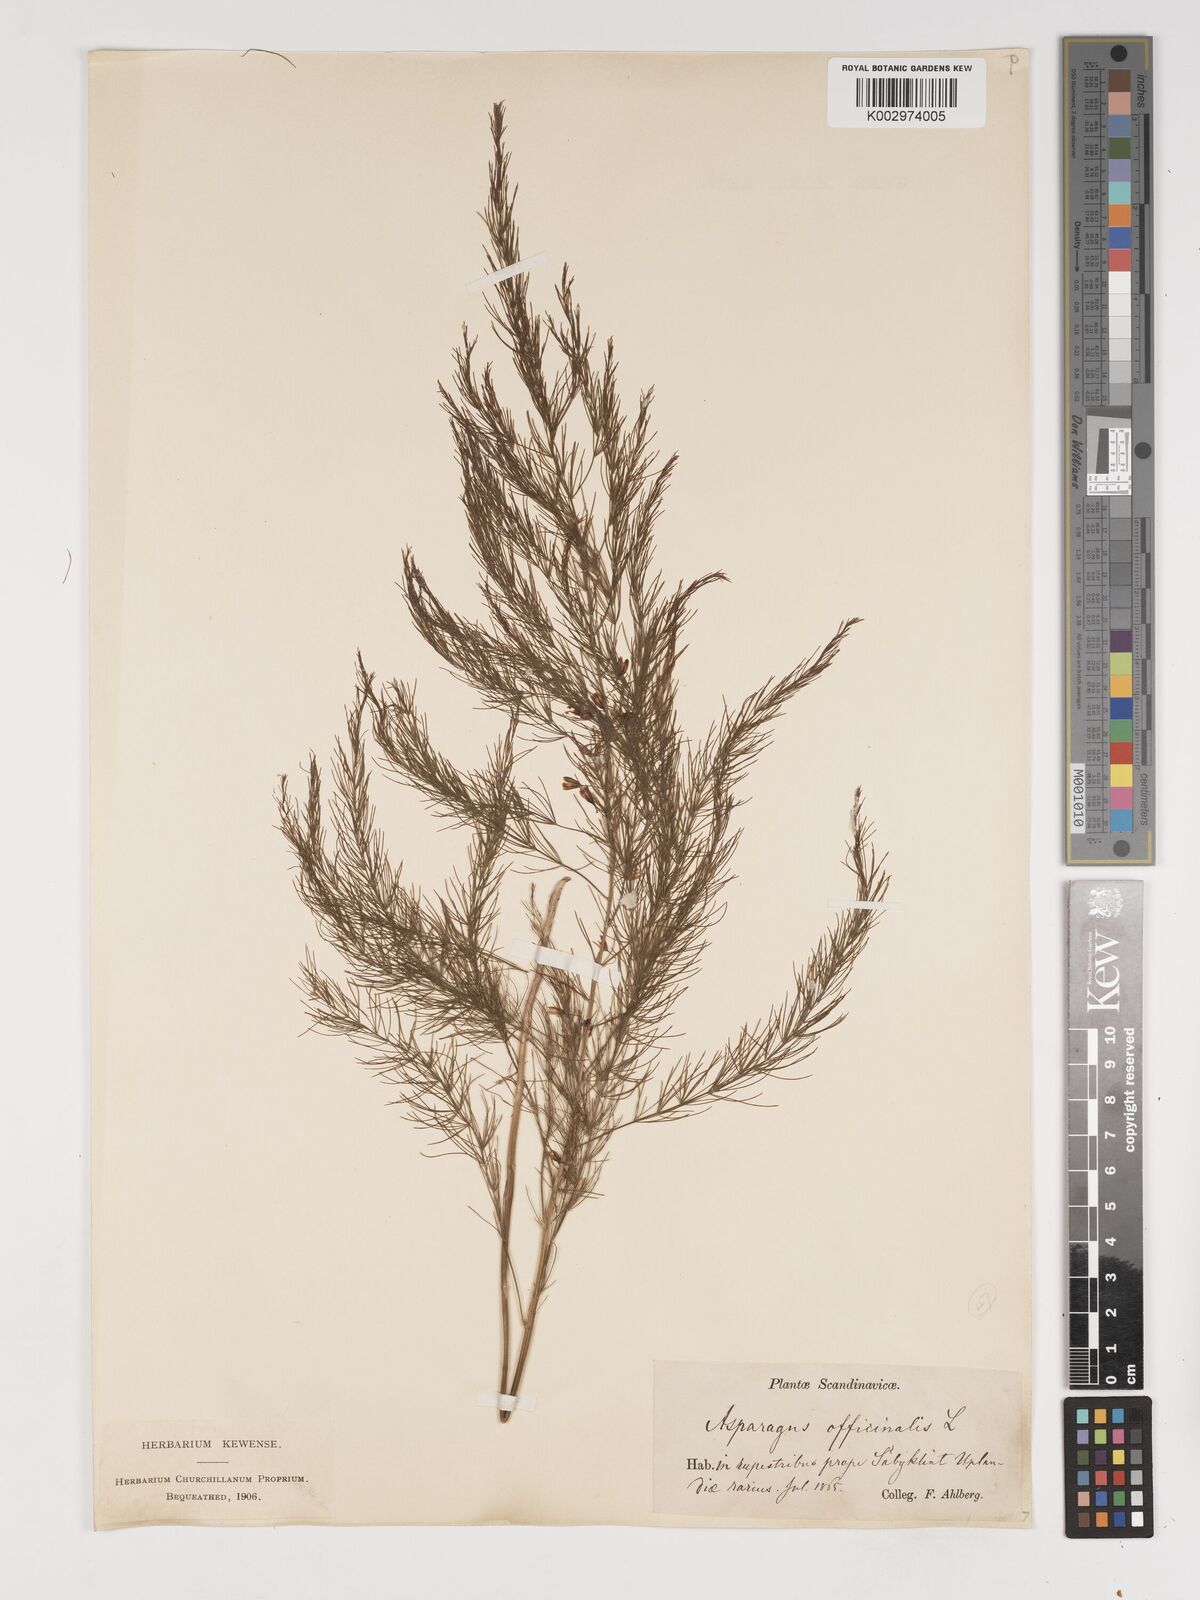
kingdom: Plantae
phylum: Tracheophyta
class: Liliopsida
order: Asparagales
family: Asparagaceae
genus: Asparagus
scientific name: Asparagus officinalis
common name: Garden asparagus
